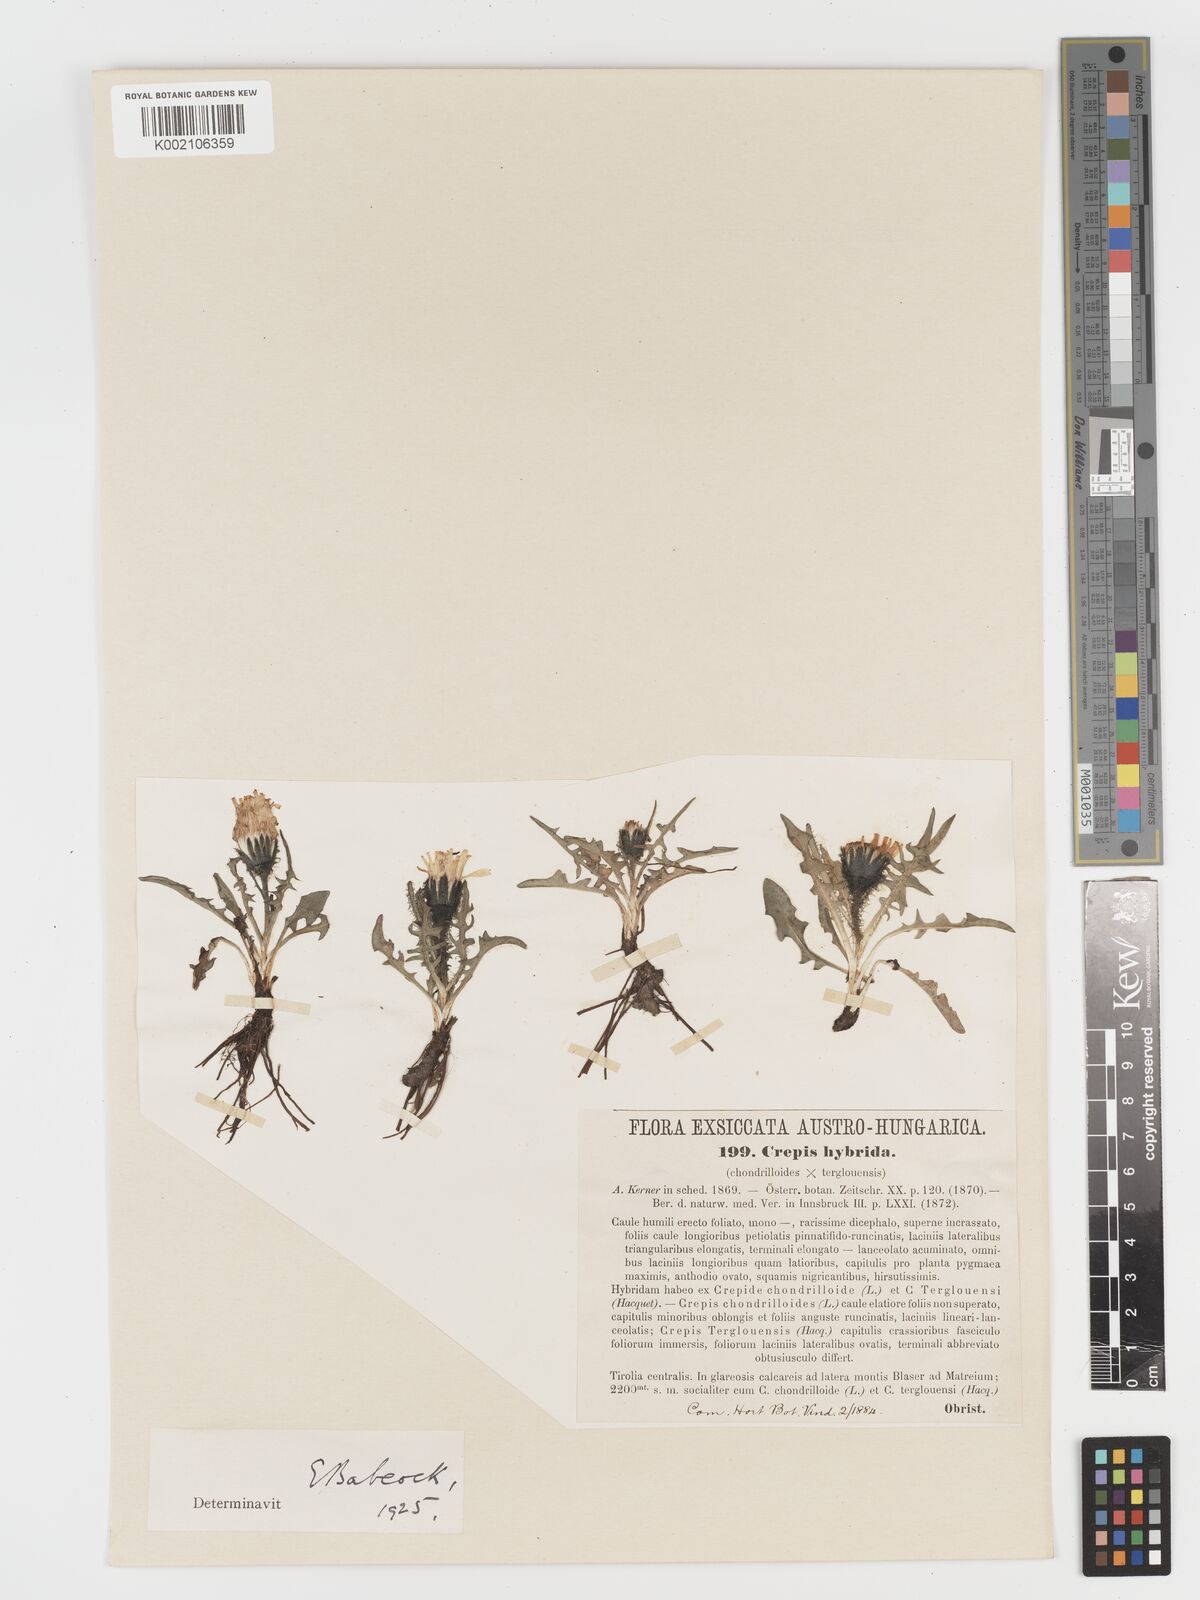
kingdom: Plantae
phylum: Tracheophyta
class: Magnoliopsida
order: Asterales
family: Asteraceae
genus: Crepis
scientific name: Crepis hybrida
